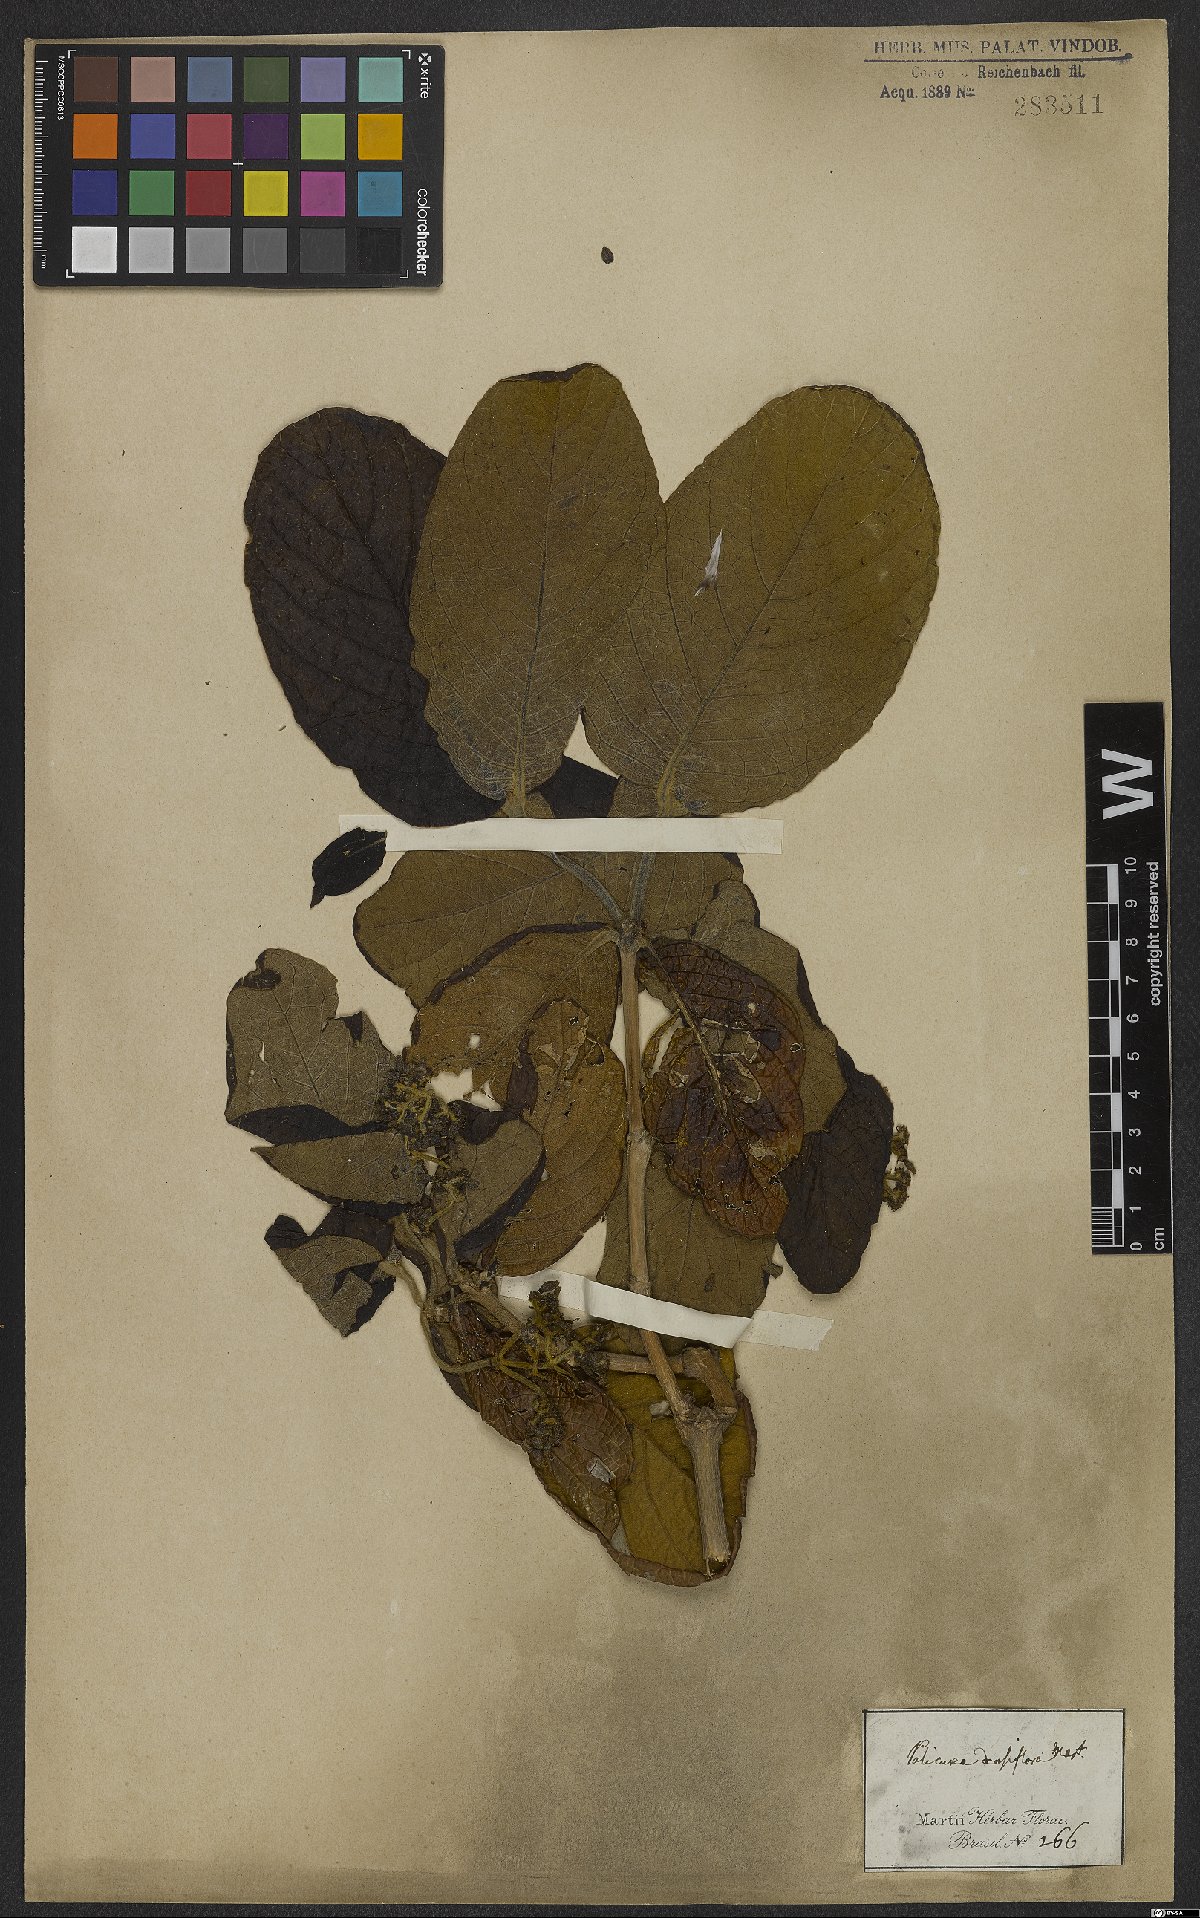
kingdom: Plantae
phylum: Tracheophyta
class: Magnoliopsida
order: Gentianales
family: Rubiaceae
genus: Rudgea
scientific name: Rudgea viburnoides
